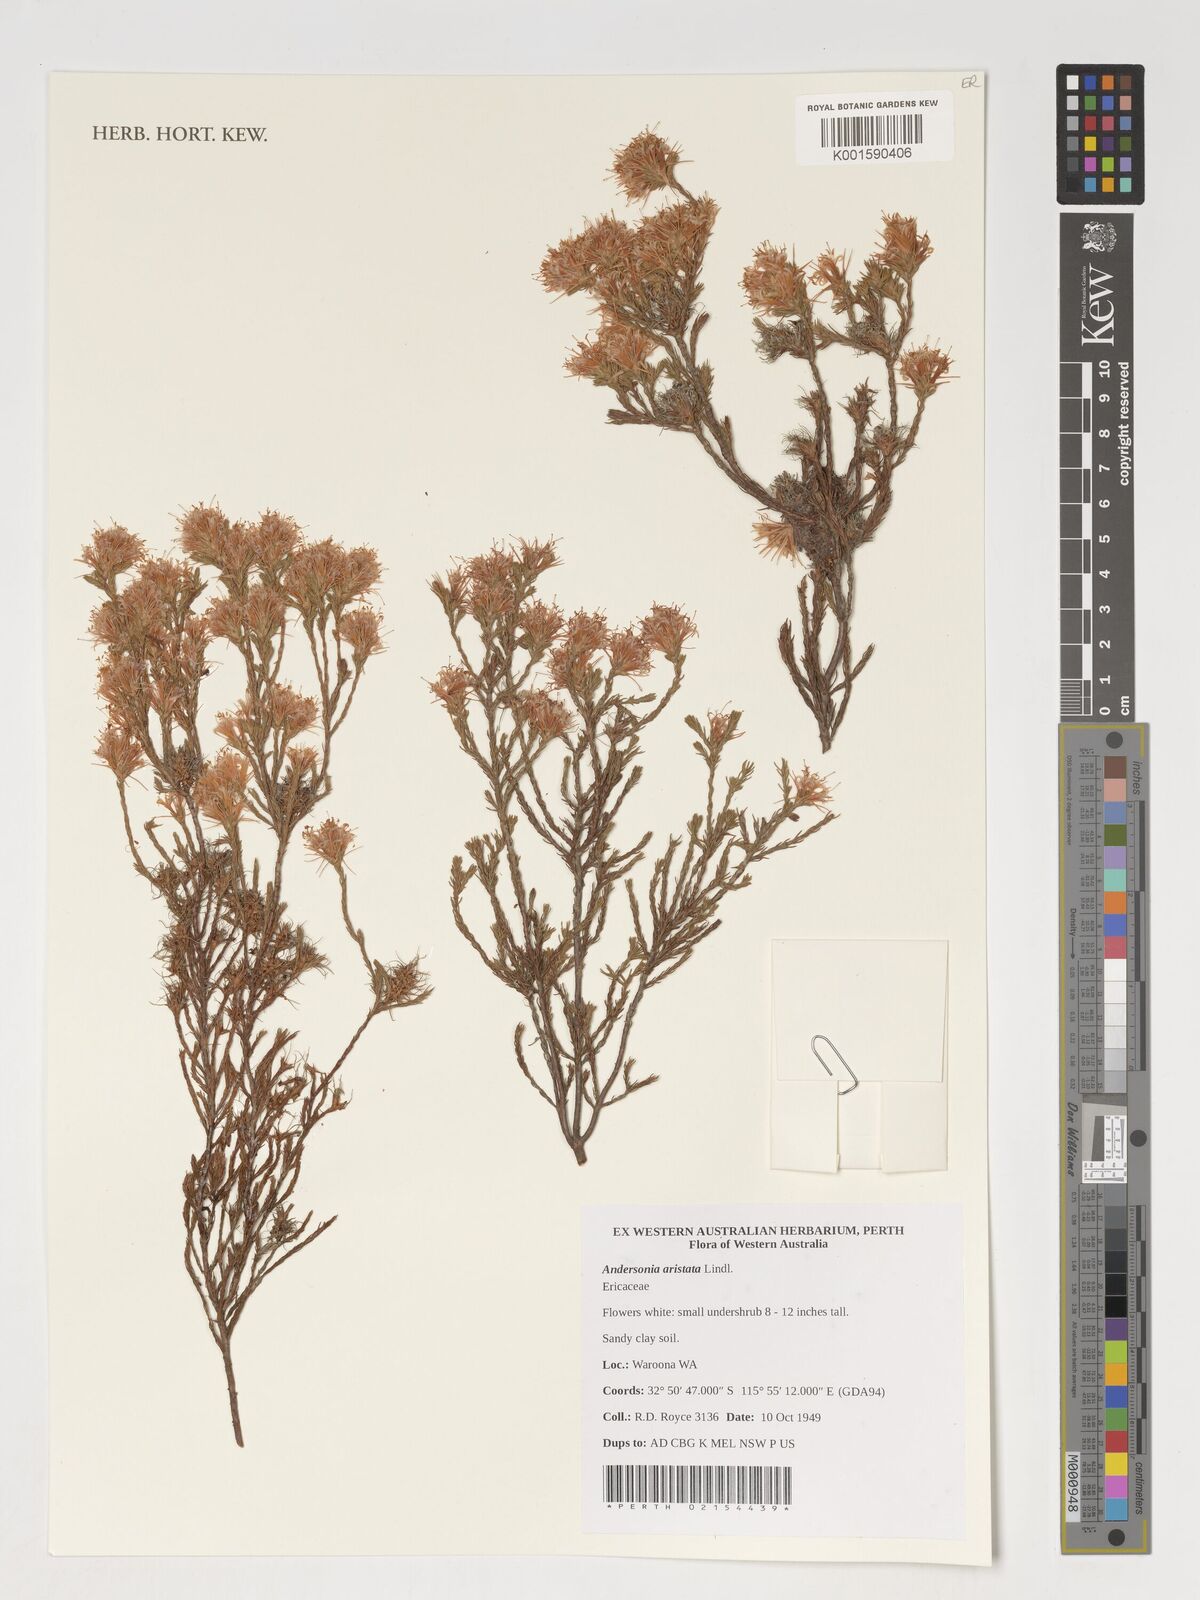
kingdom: Plantae
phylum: Tracheophyta
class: Magnoliopsida
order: Ericales
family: Ericaceae
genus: Andersonia
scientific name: Andersonia aristata
